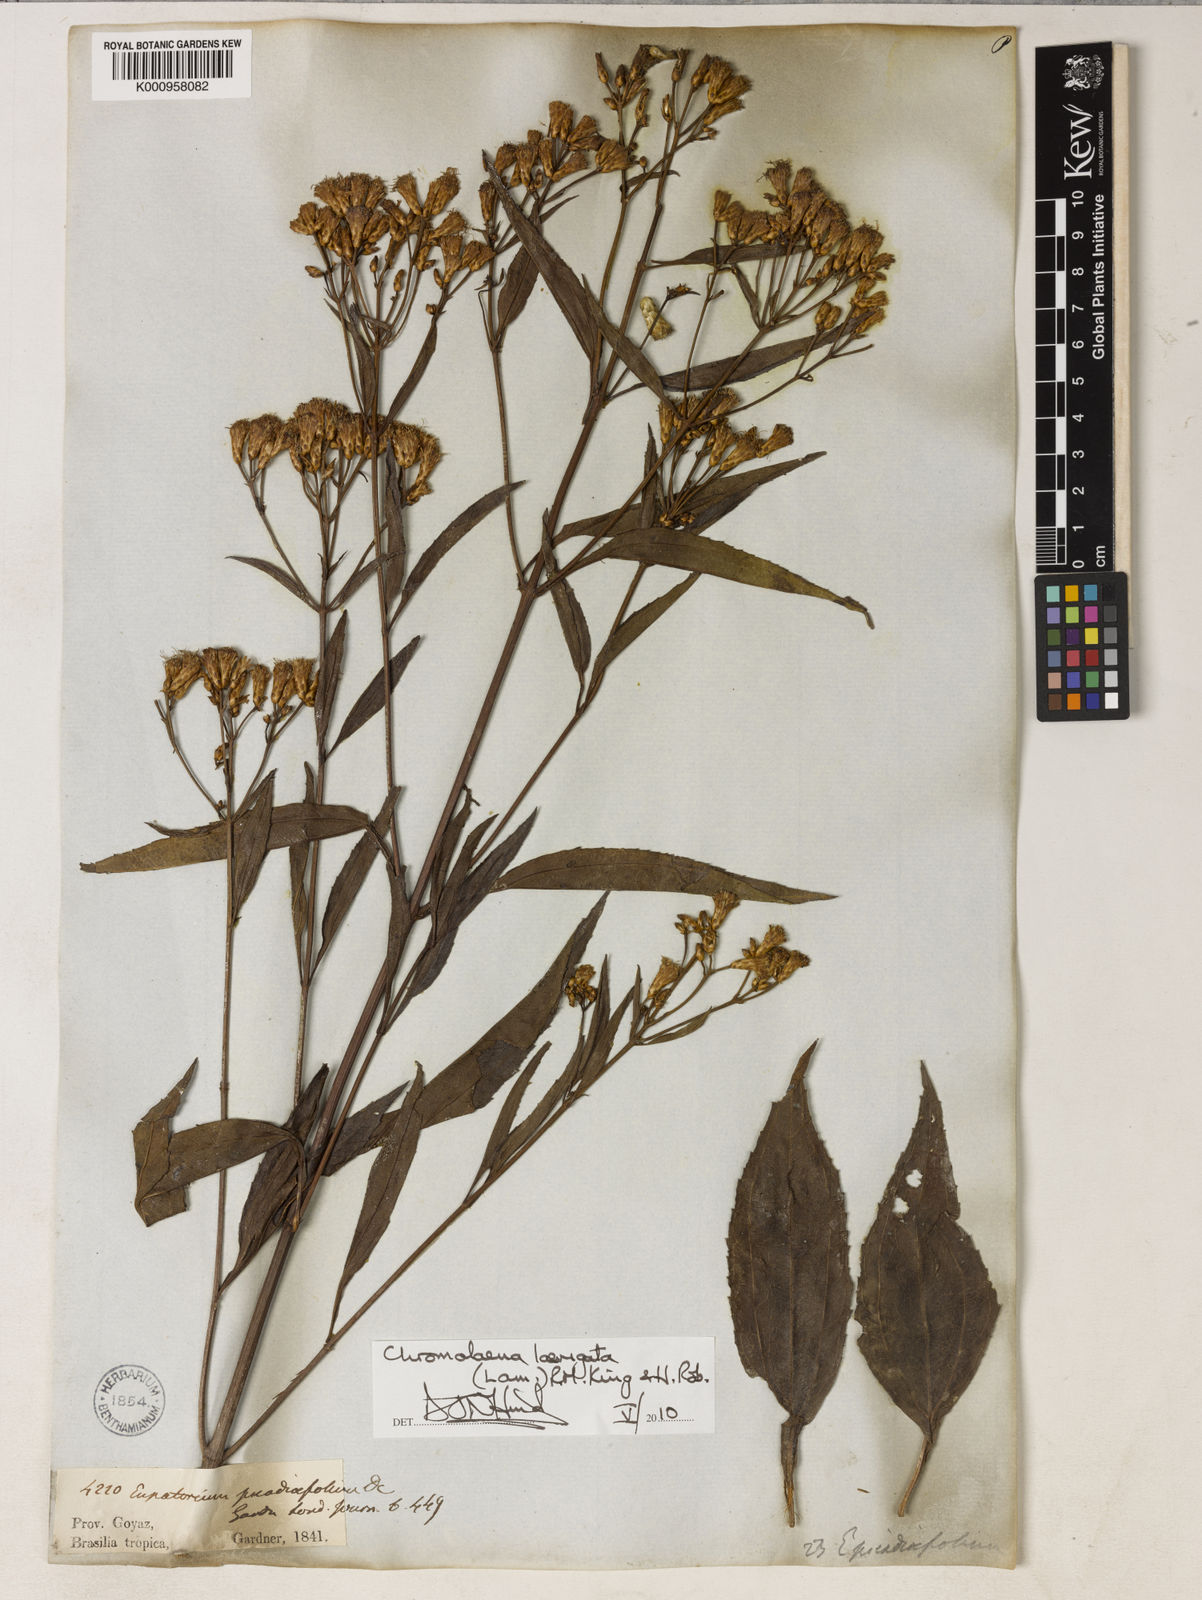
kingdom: Plantae
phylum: Tracheophyta
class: Magnoliopsida
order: Asterales
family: Asteraceae
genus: Chromolaena
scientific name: Chromolaena laevigata
